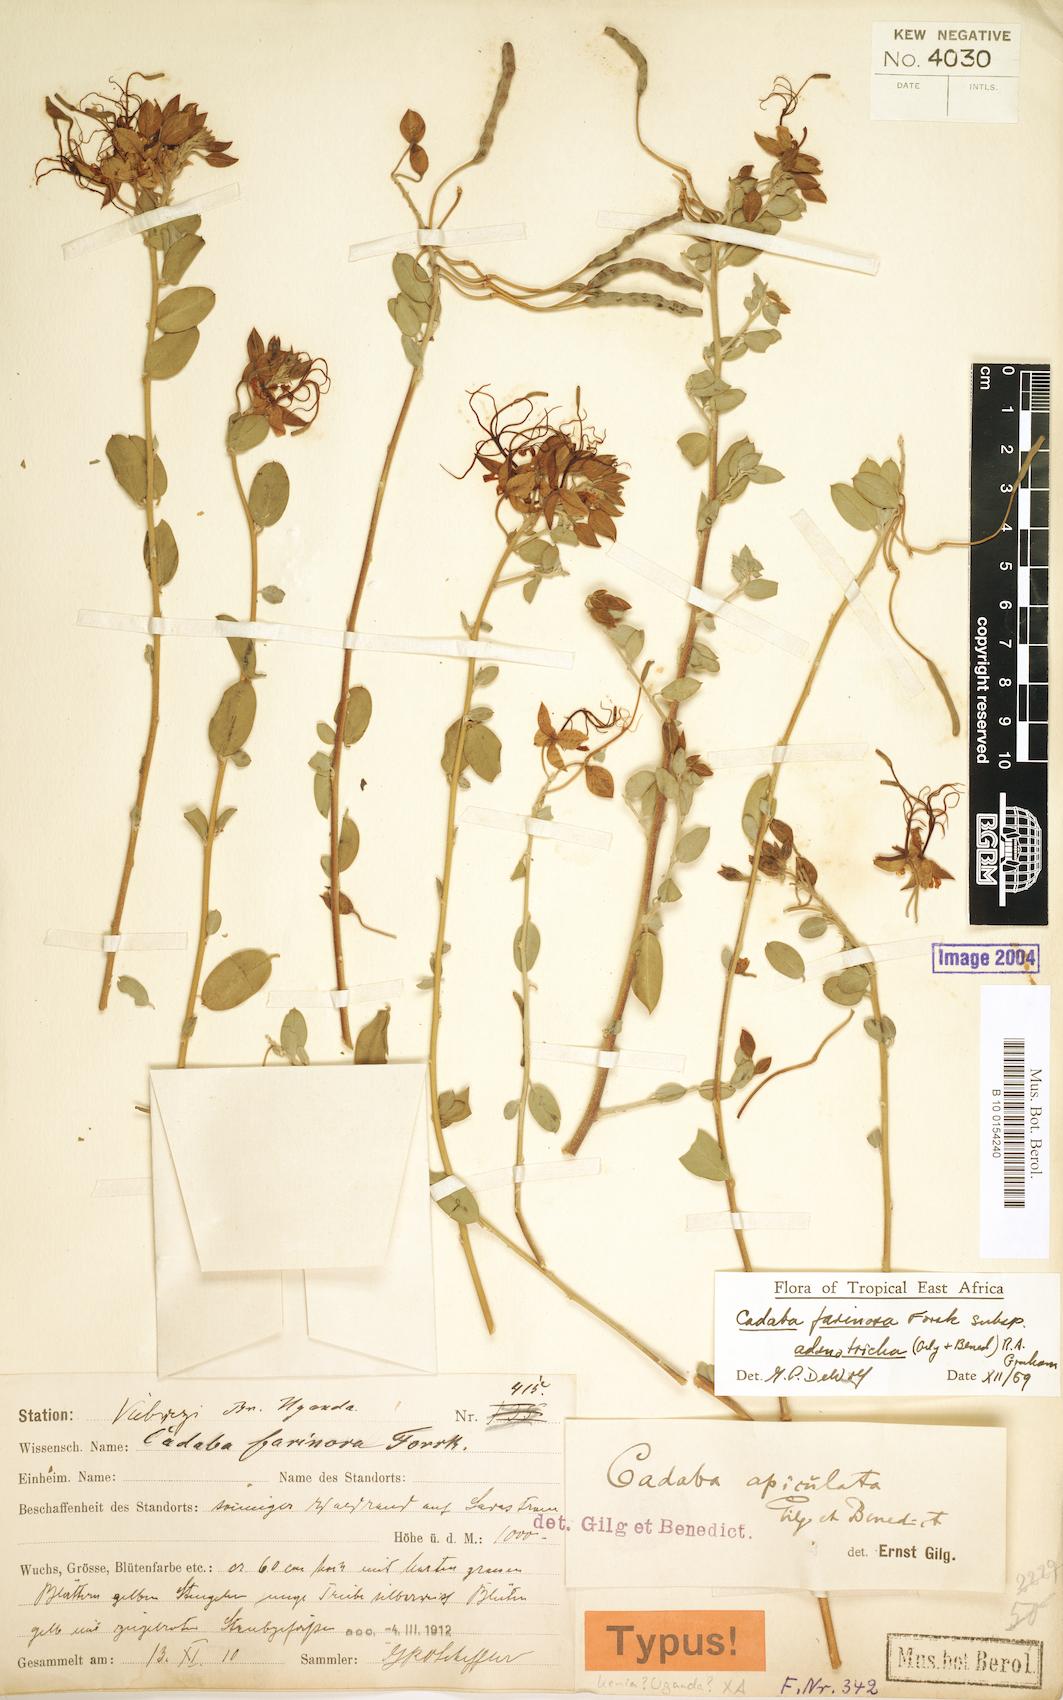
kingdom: Plantae
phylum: Tracheophyta
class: Magnoliopsida
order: Brassicales
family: Capparaceae
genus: Cadaba
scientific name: Cadaba farinosa
